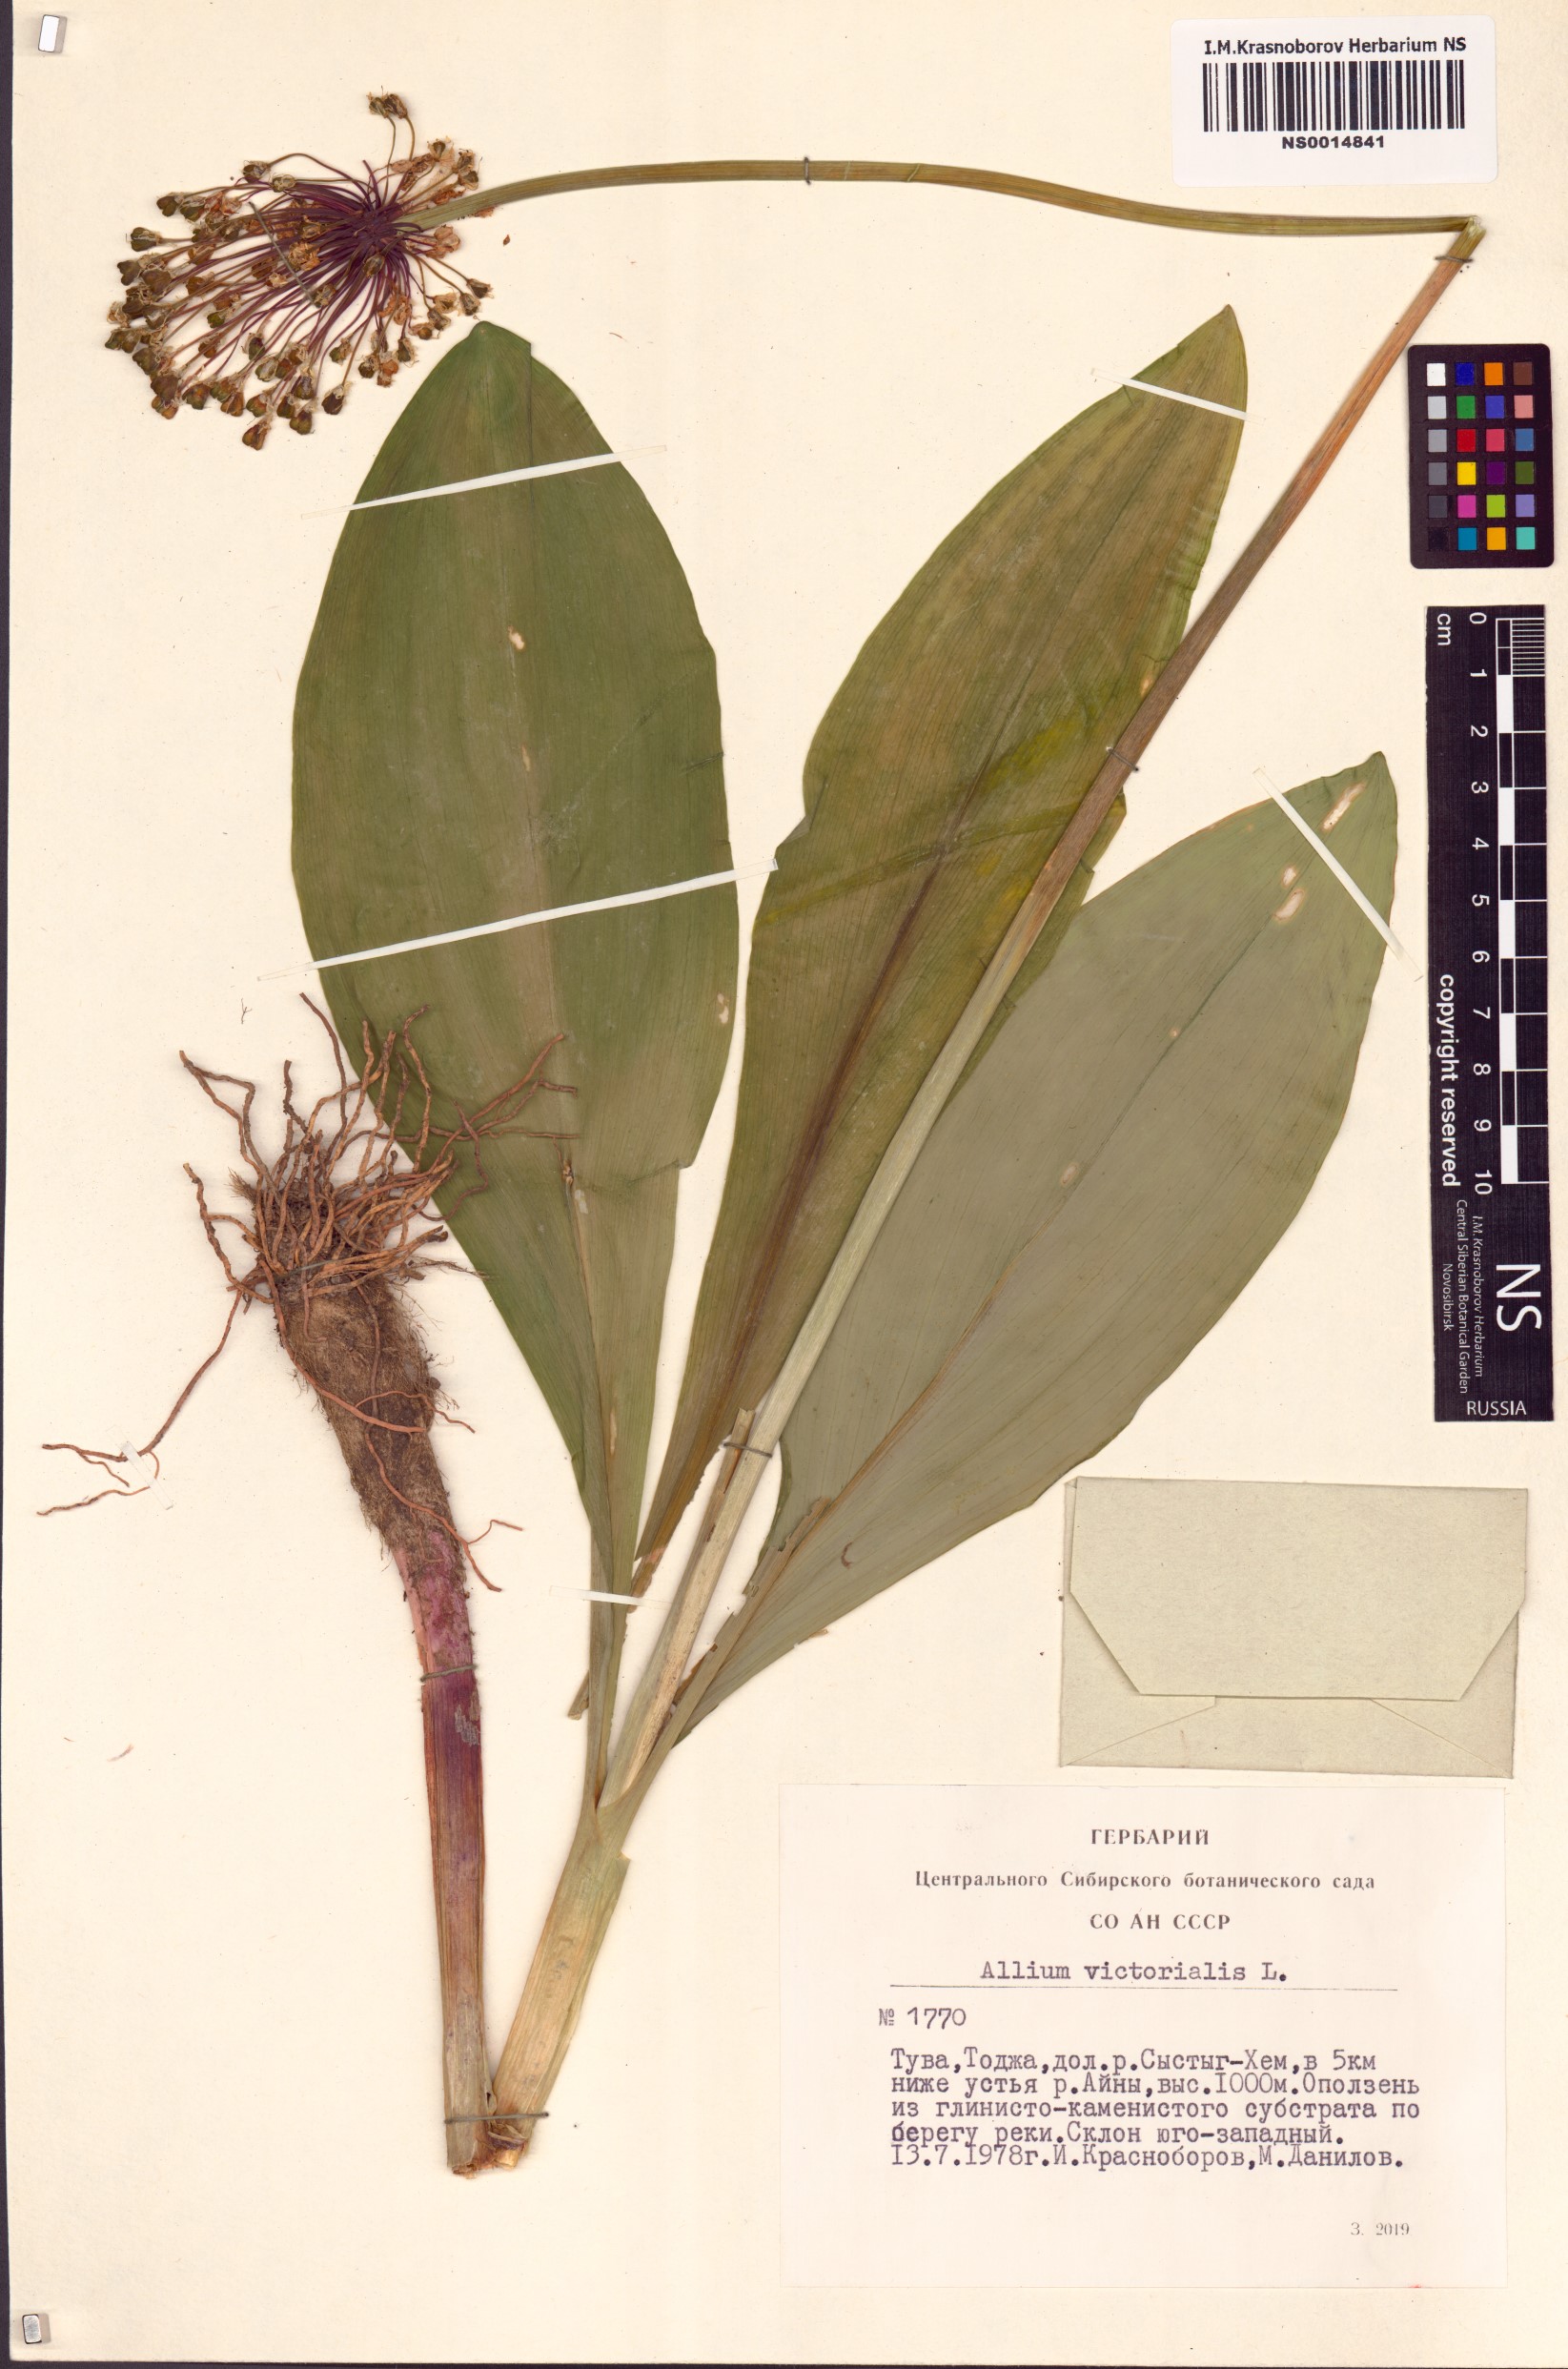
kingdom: Plantae
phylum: Tracheophyta
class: Liliopsida
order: Asparagales
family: Amaryllidaceae
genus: Allium
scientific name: Allium victorialis
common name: Alpine leek
